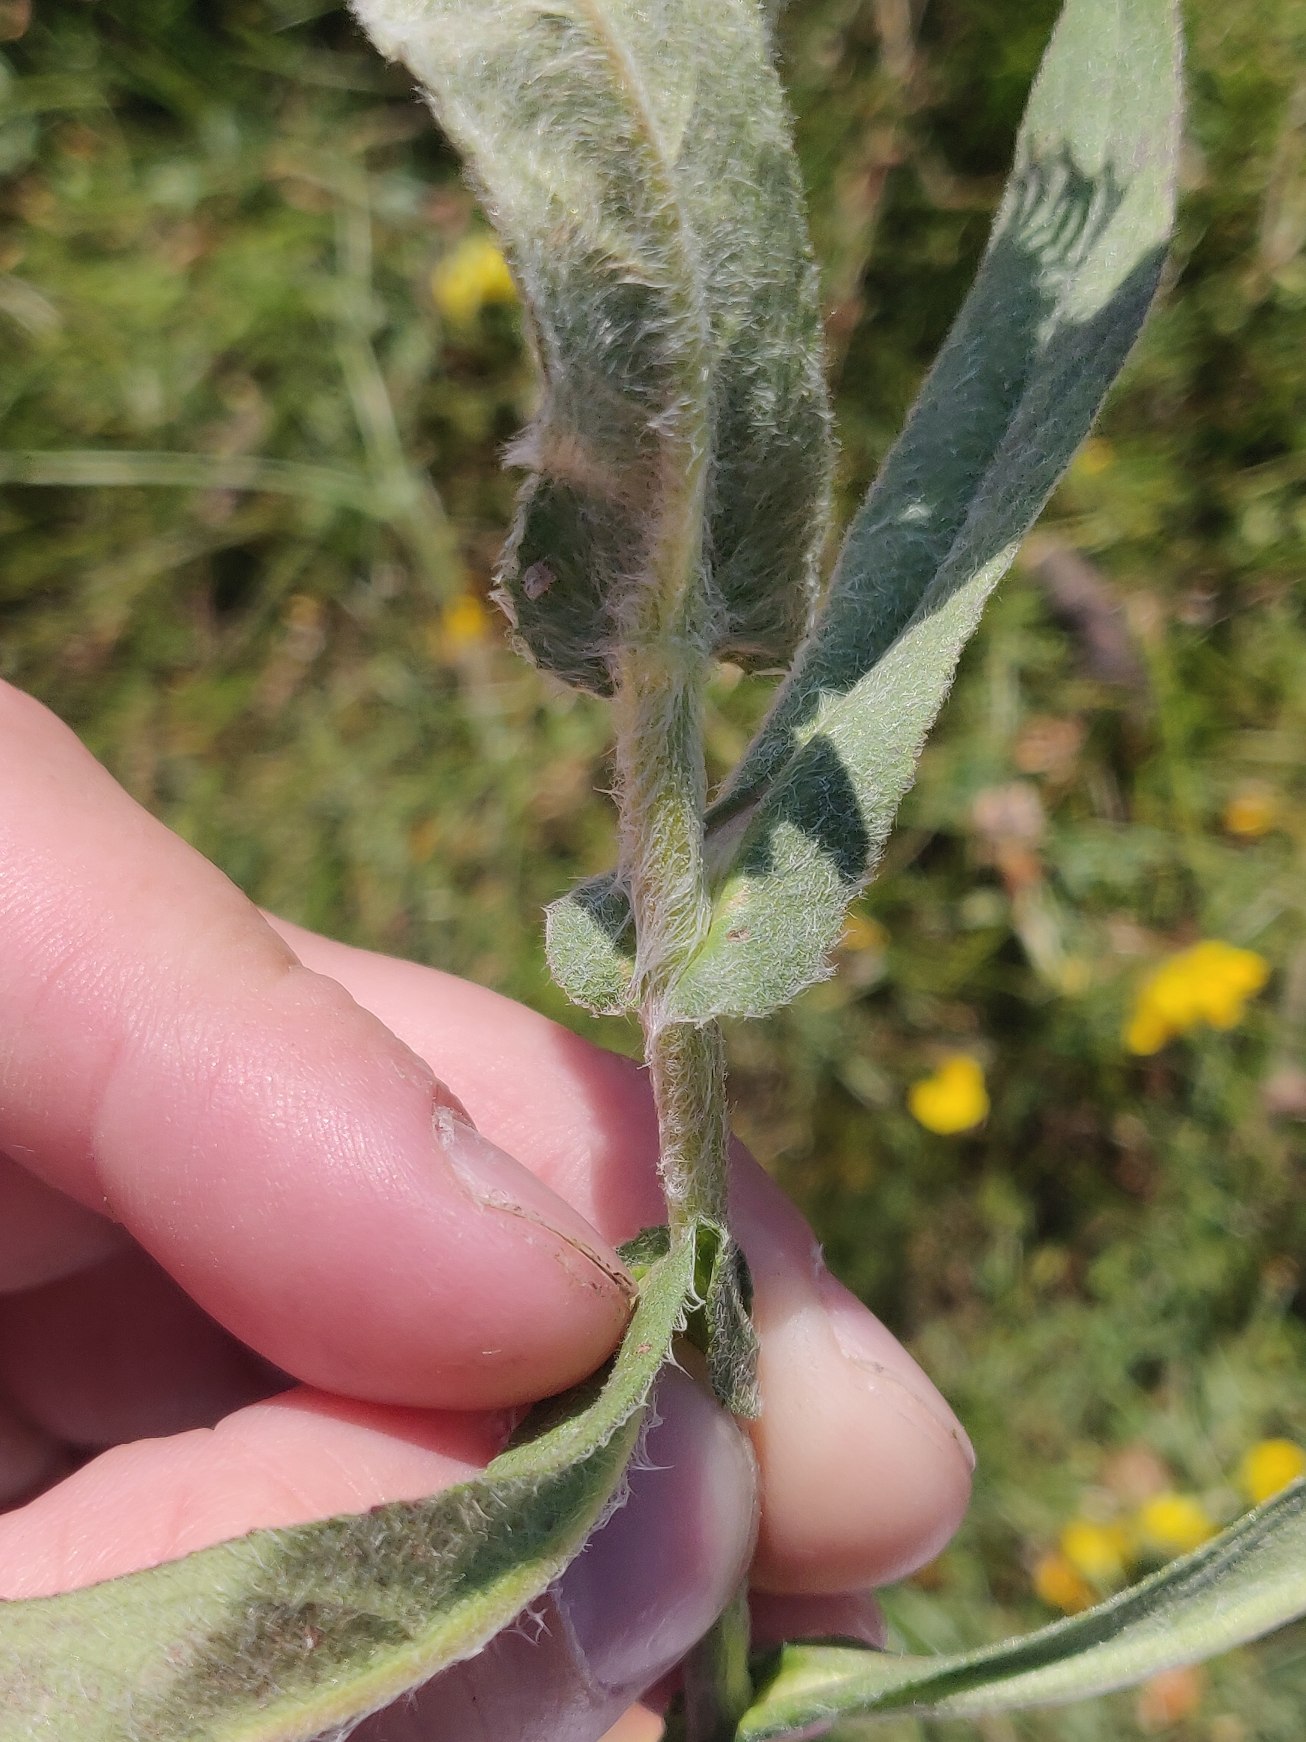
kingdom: Plantae
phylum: Tracheophyta
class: Magnoliopsida
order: Asterales
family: Asteraceae
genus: Pentanema
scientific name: Pentanema britannicum
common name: Soløje-alant
